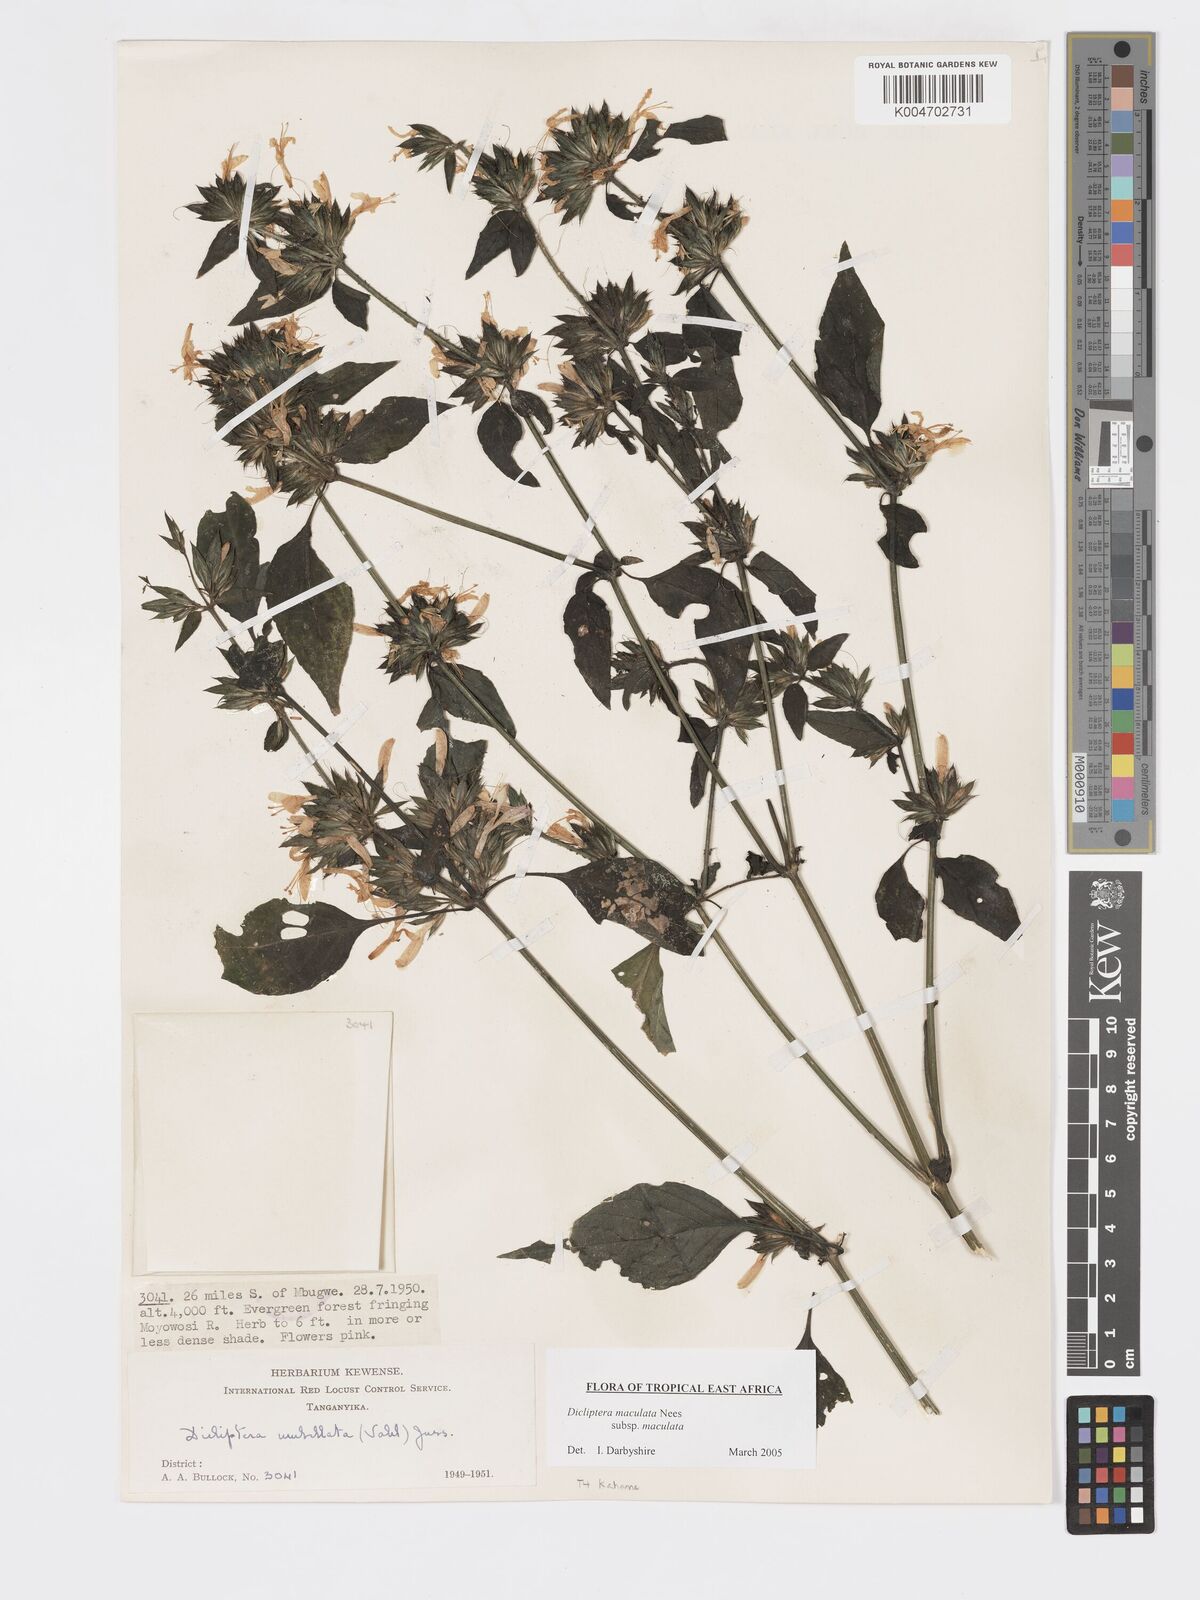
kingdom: Plantae
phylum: Tracheophyta
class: Magnoliopsida
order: Lamiales
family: Acanthaceae
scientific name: Acanthaceae
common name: Acanthaceae
